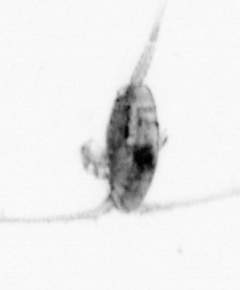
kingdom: Animalia
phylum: Arthropoda
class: Copepoda
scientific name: Copepoda
